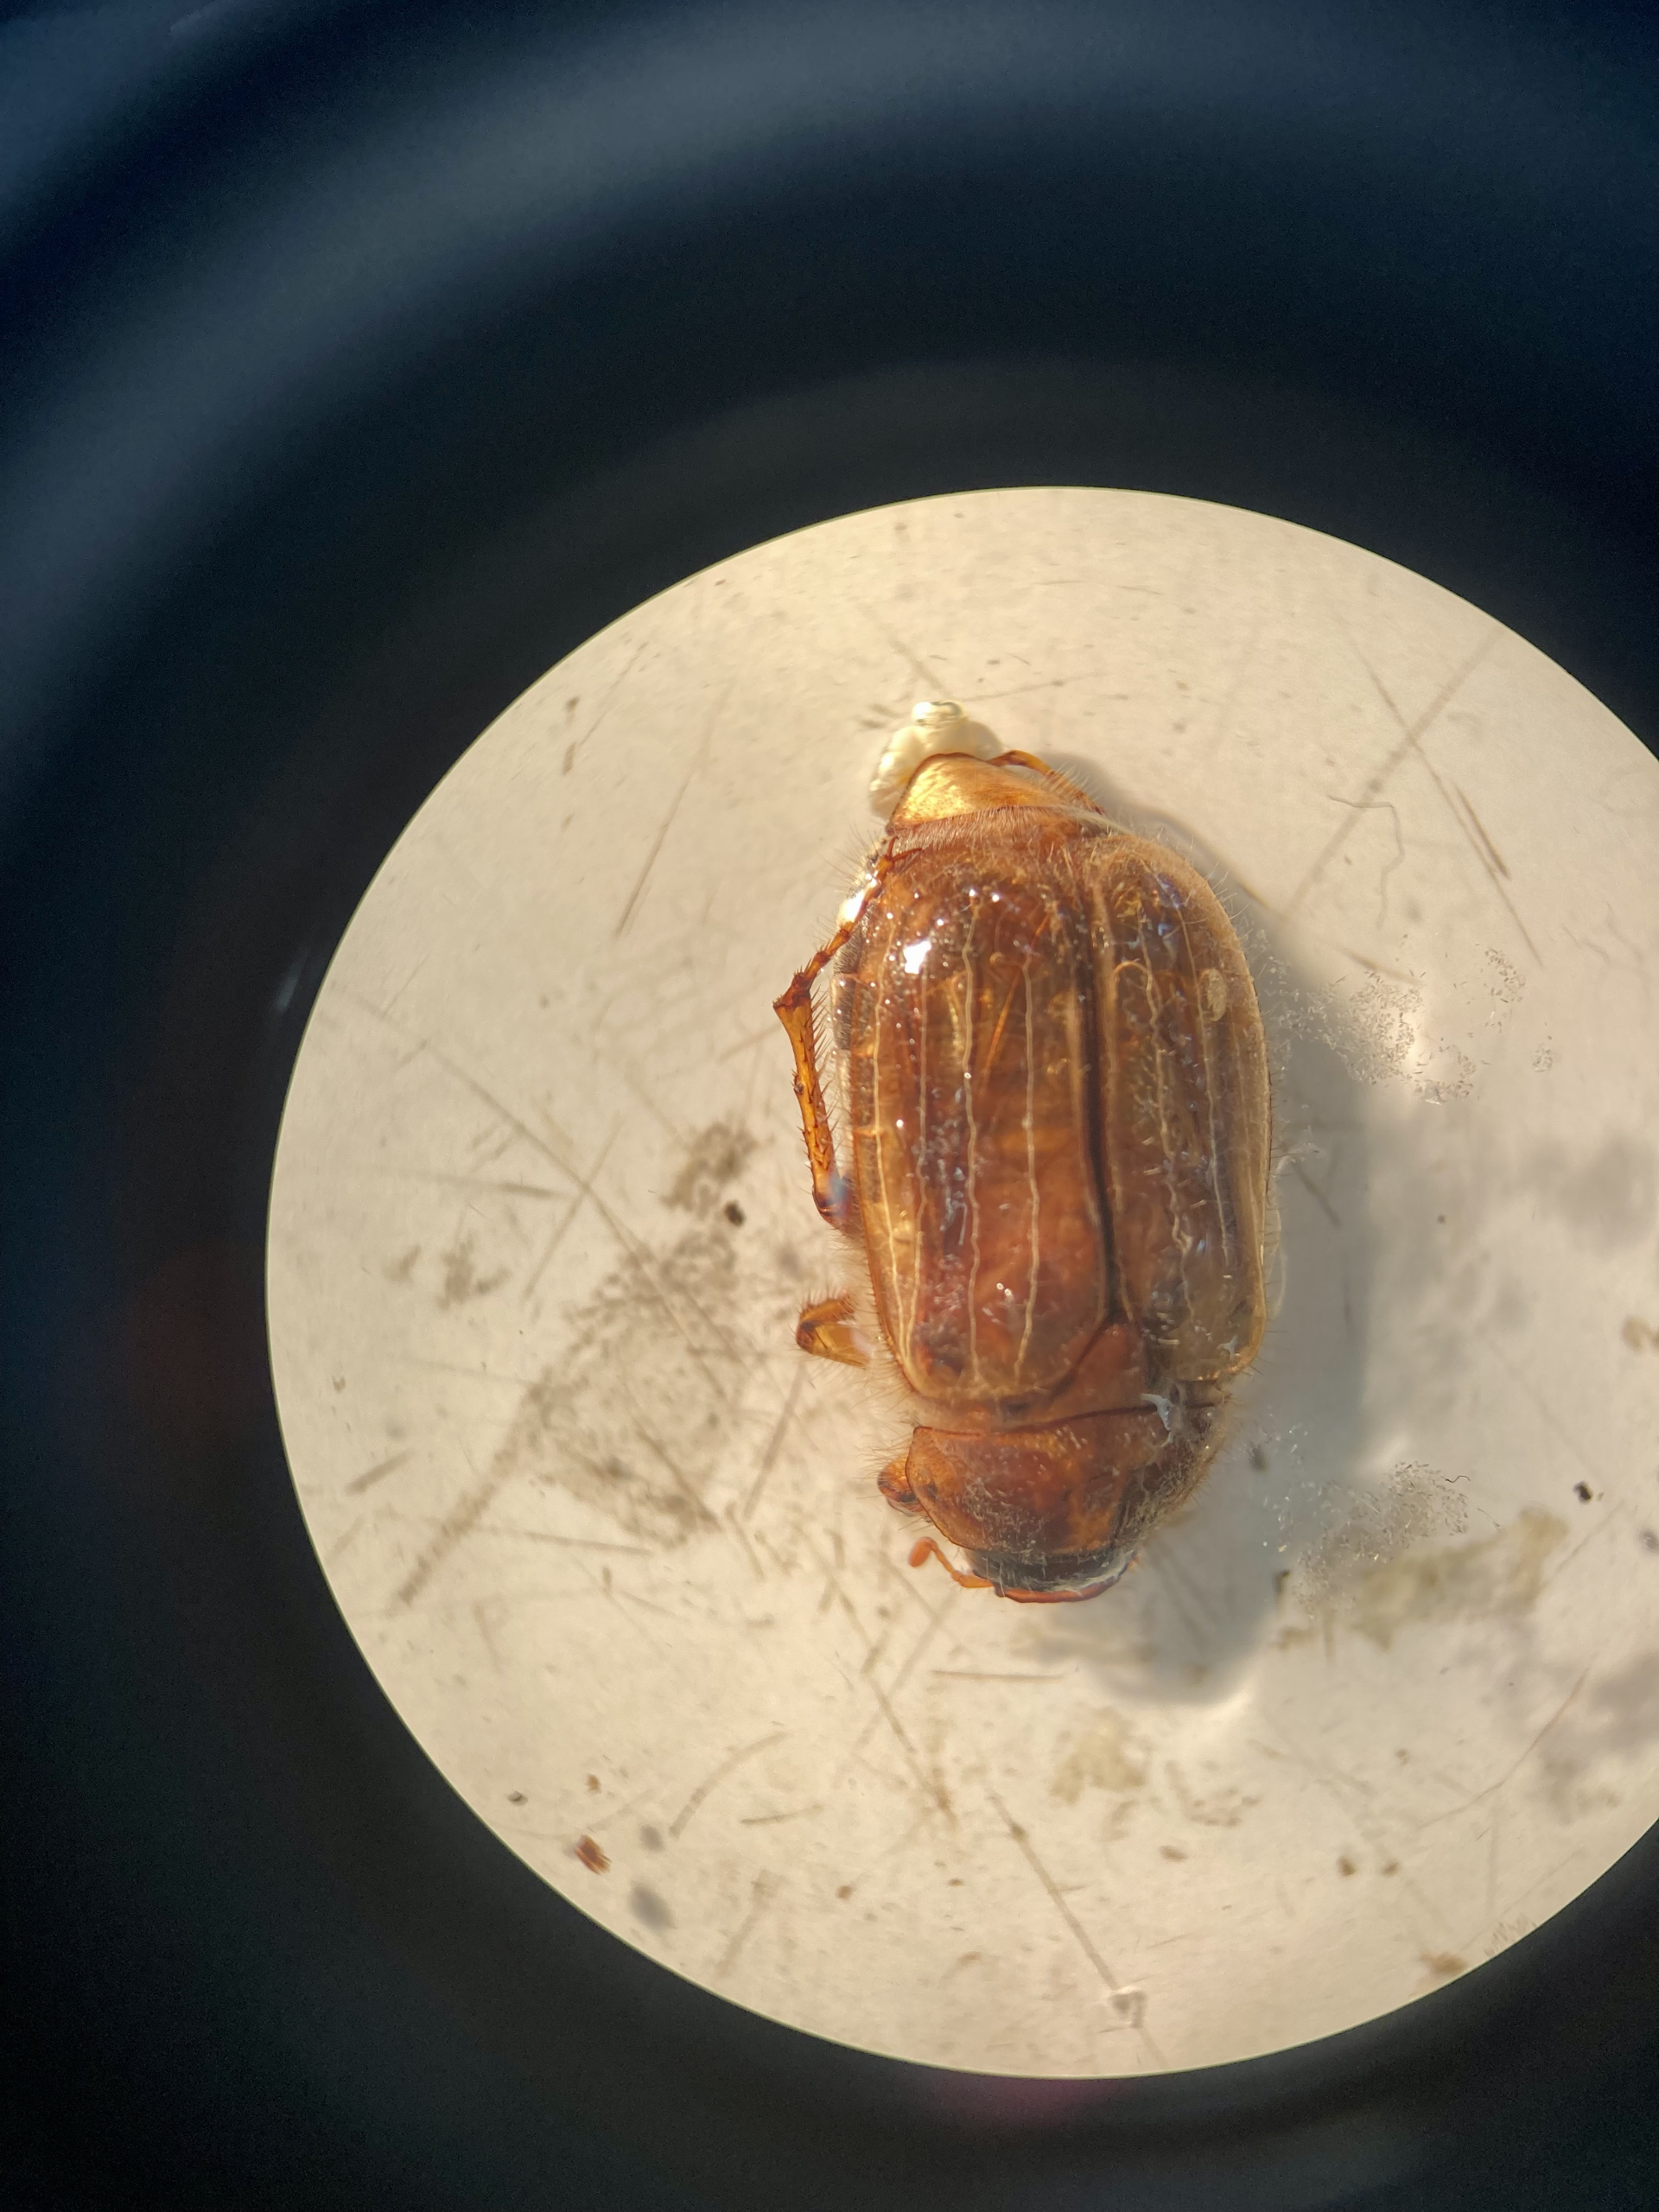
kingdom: Animalia
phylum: Arthropoda
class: Insecta
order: Coleoptera
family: Scarabaeidae
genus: Amphimallon
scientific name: Amphimallon solstitiale
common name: Sankthansoldenborre
